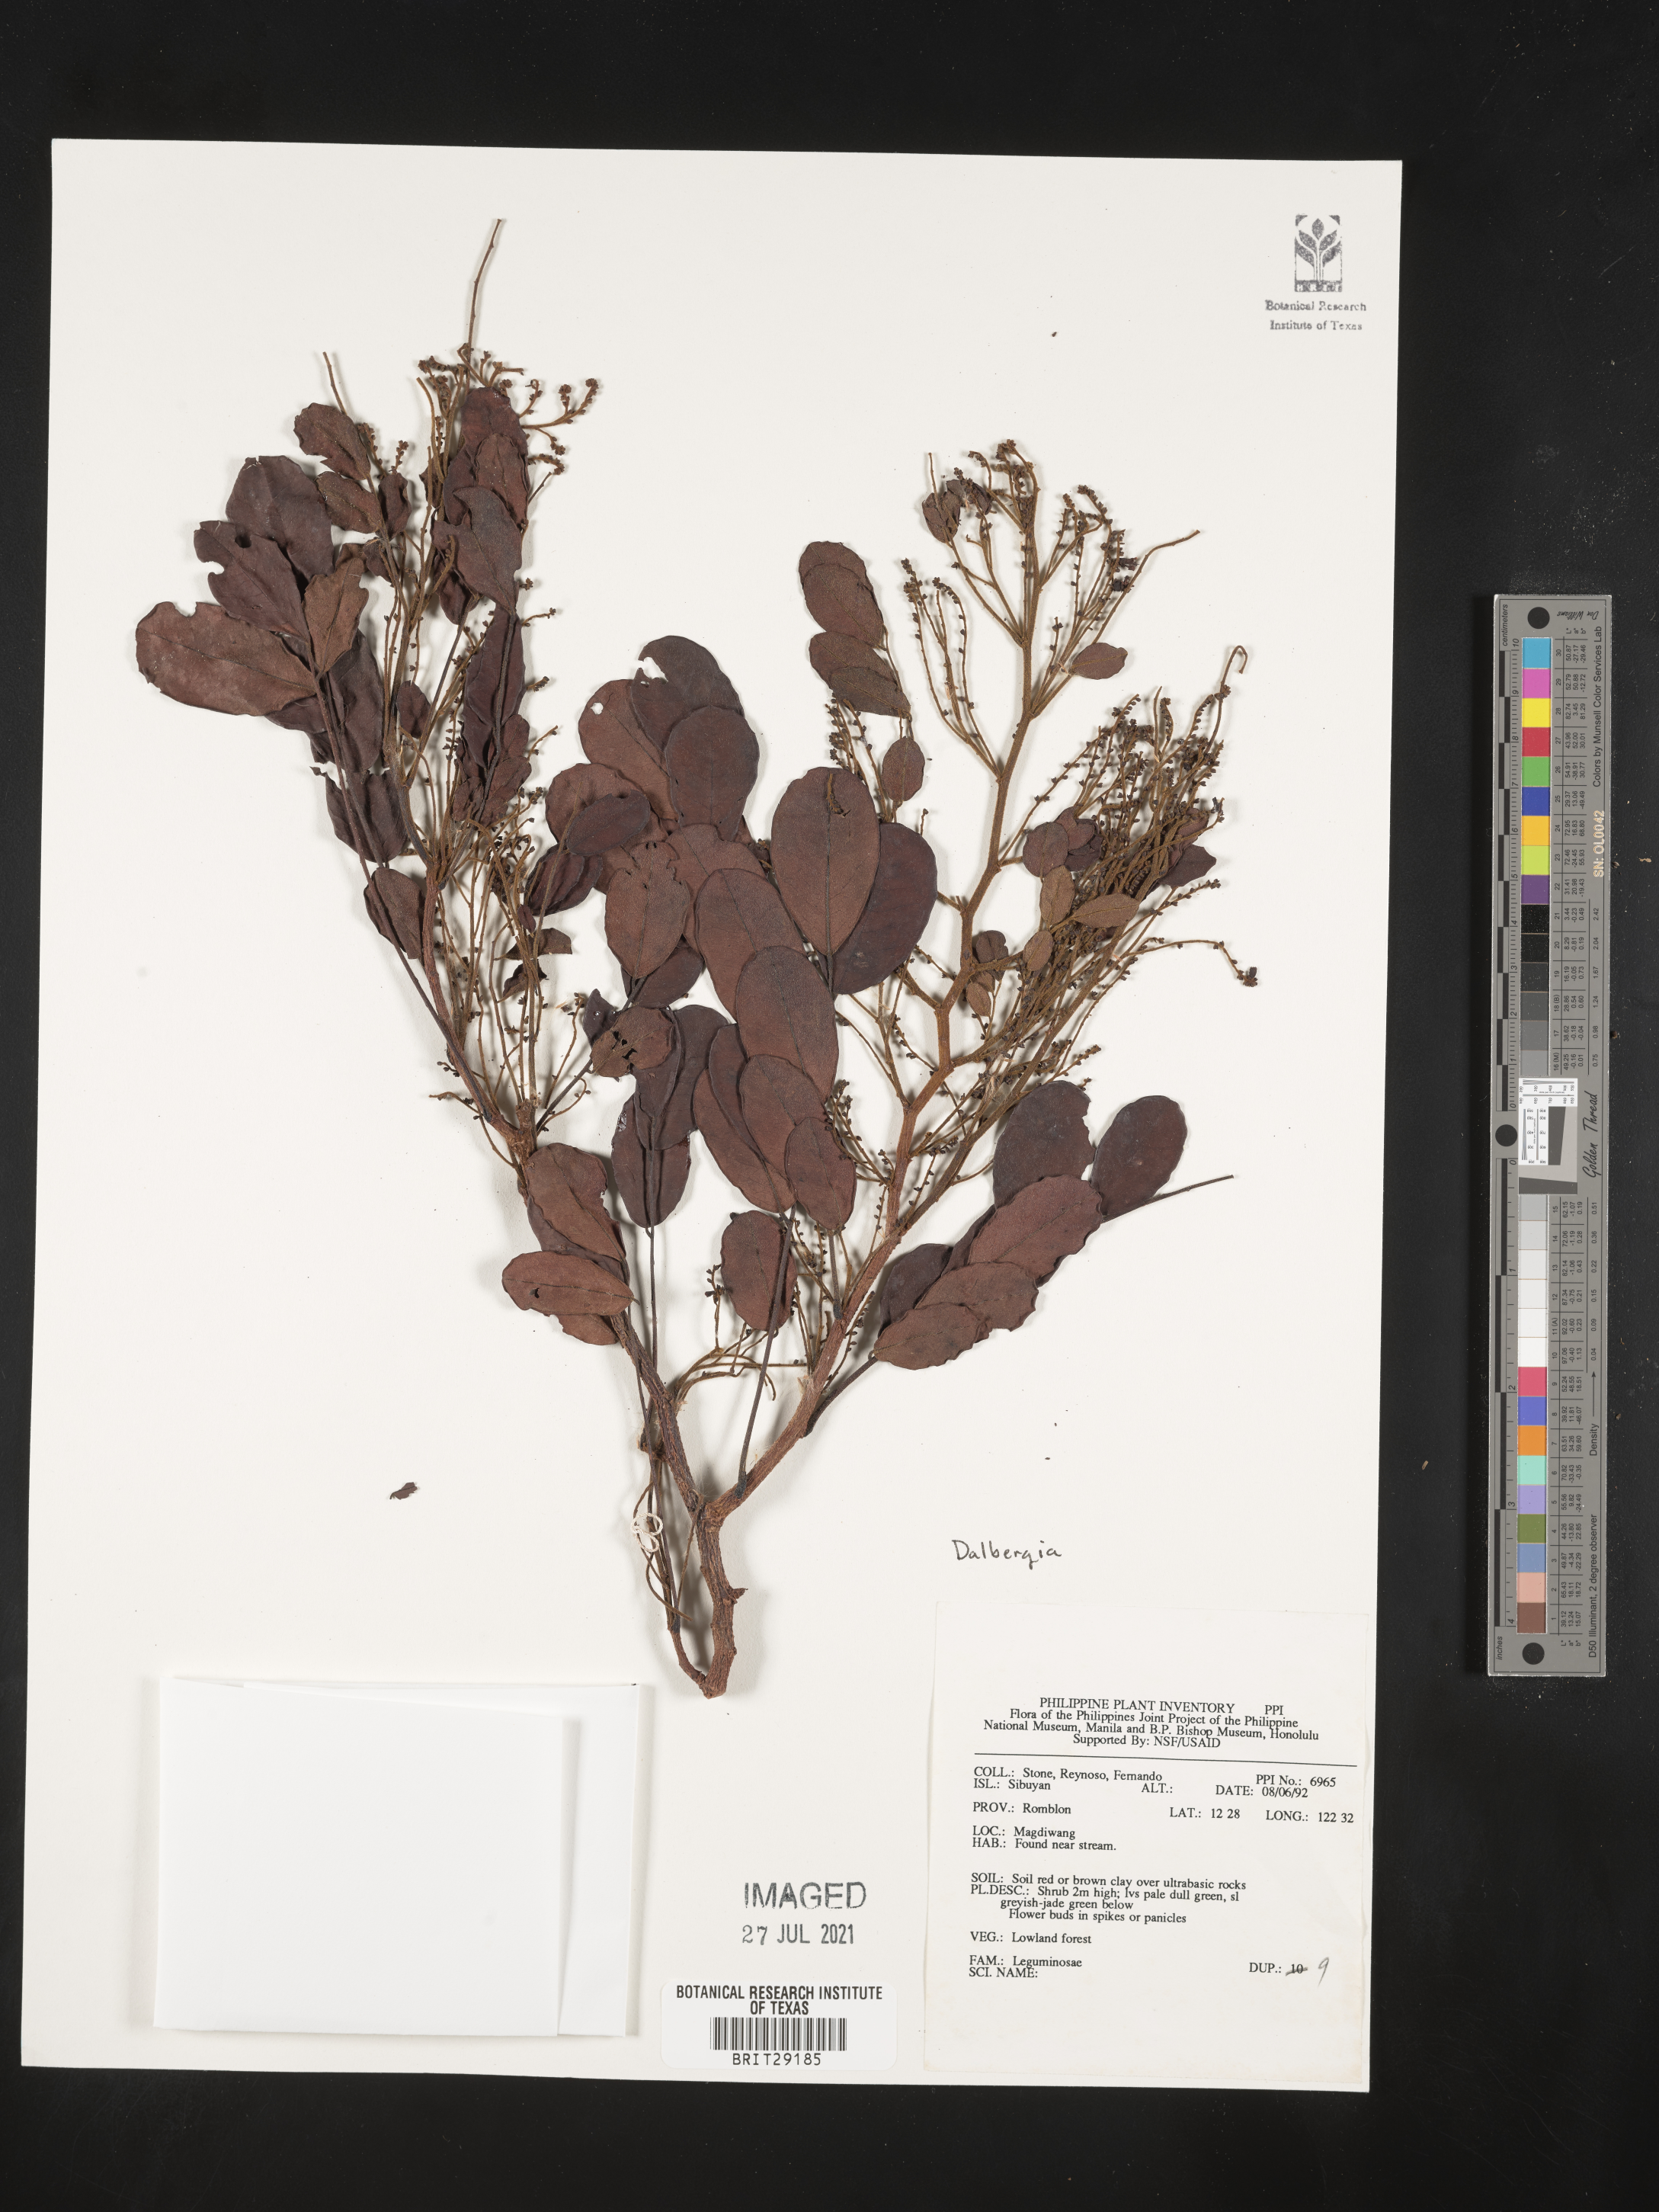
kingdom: Plantae
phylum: Tracheophyta
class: Magnoliopsida
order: Fabales
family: Fabaceae
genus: Dalbergia
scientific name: Dalbergia
